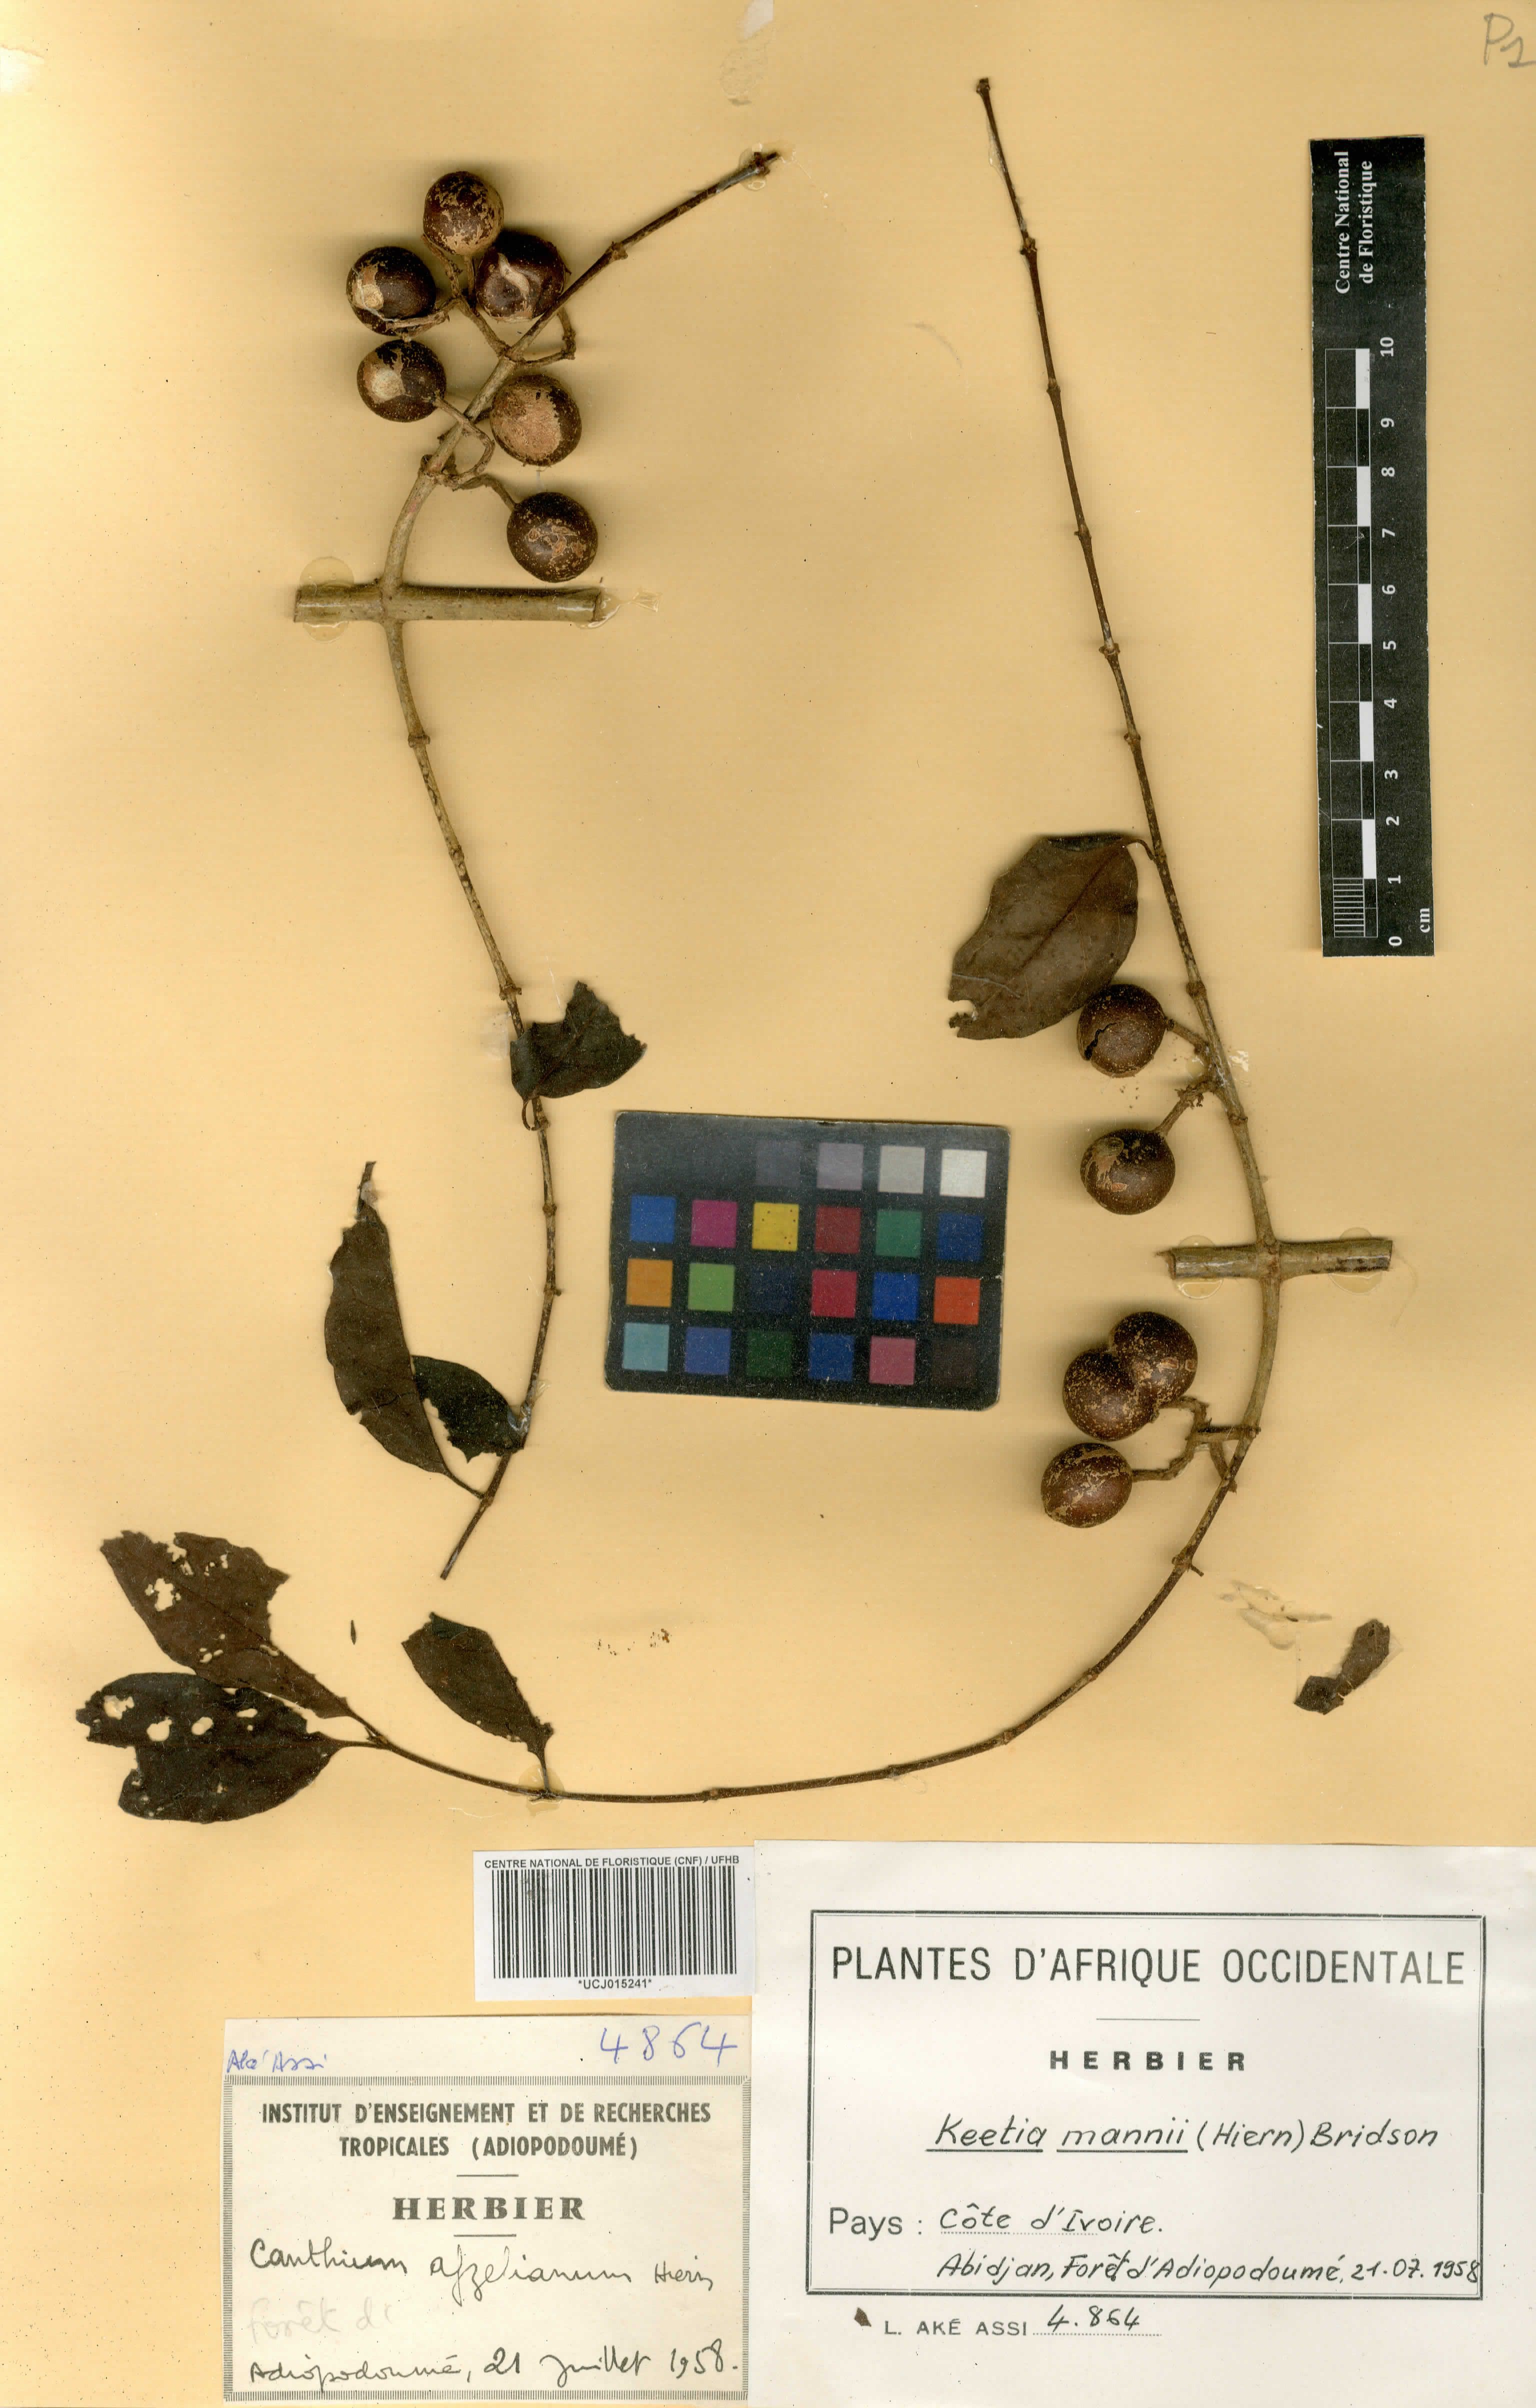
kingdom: Plantae
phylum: Tracheophyta
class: Magnoliopsida
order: Gentianales
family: Rubiaceae
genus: Keetia
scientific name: Keetia mannii
